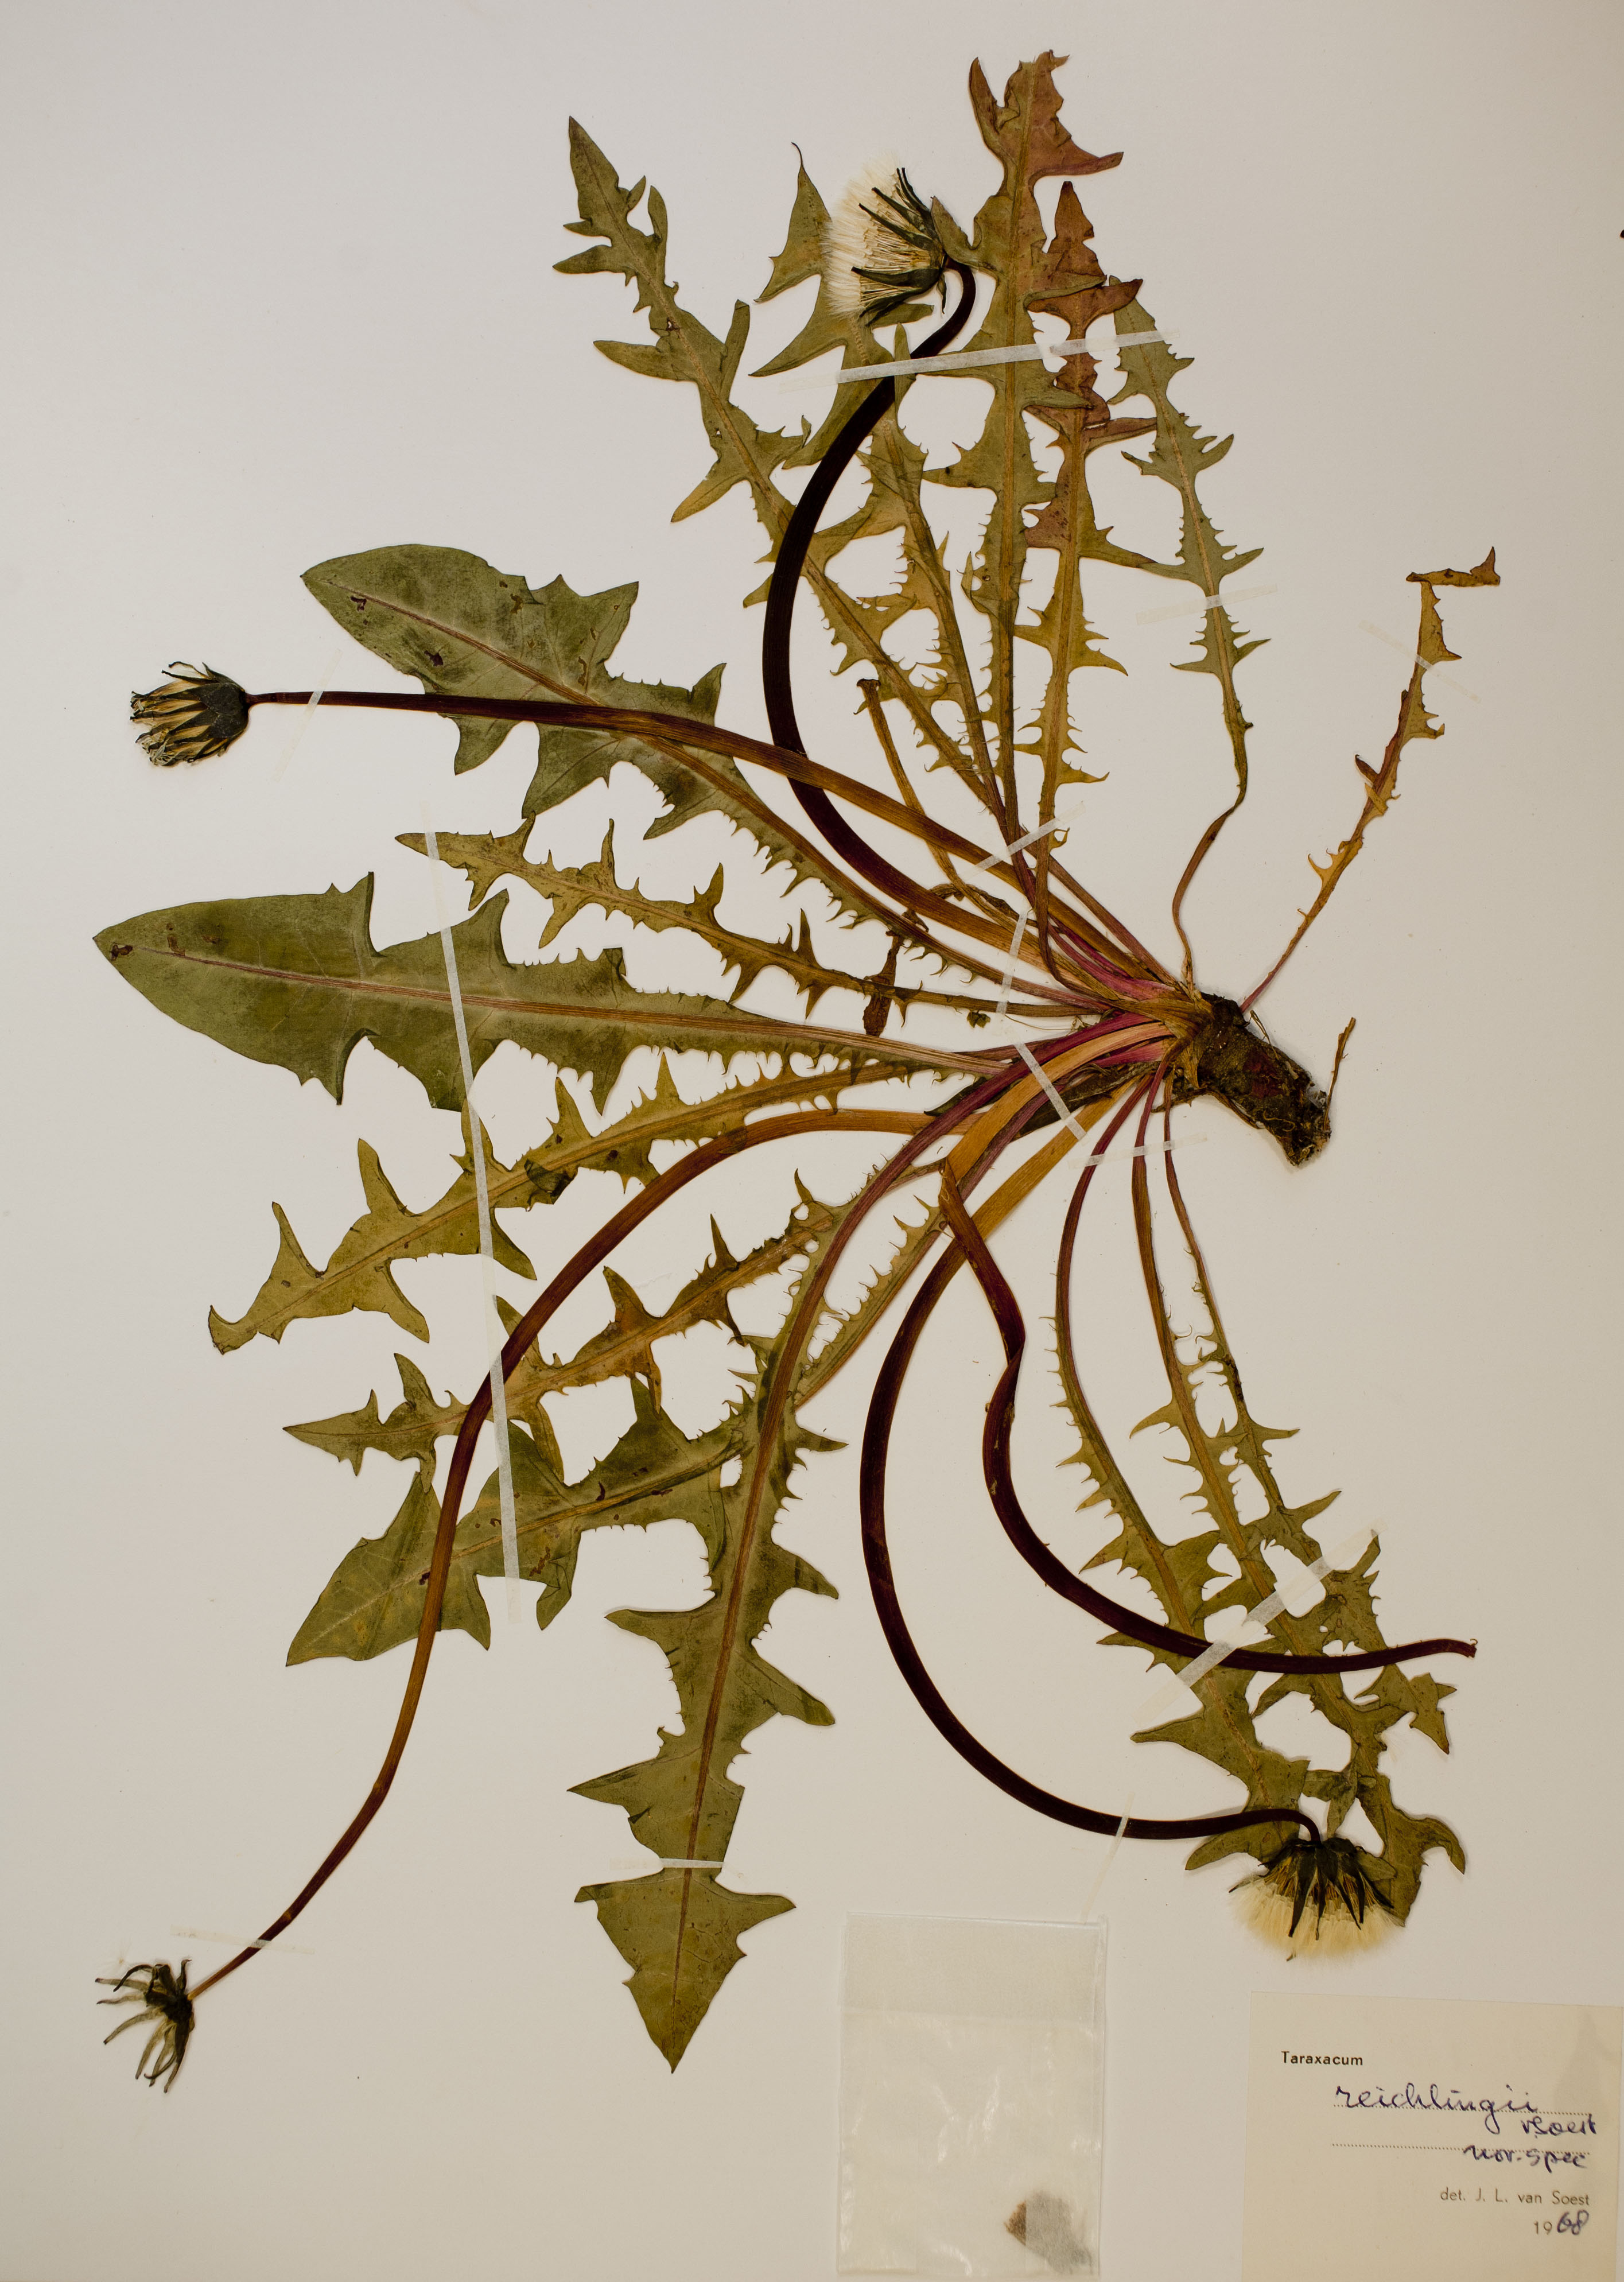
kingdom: Plantae
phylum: Tracheophyta
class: Magnoliopsida
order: Asterales
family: Asteraceae
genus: Taraxacum
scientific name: Taraxacum reichlingii
